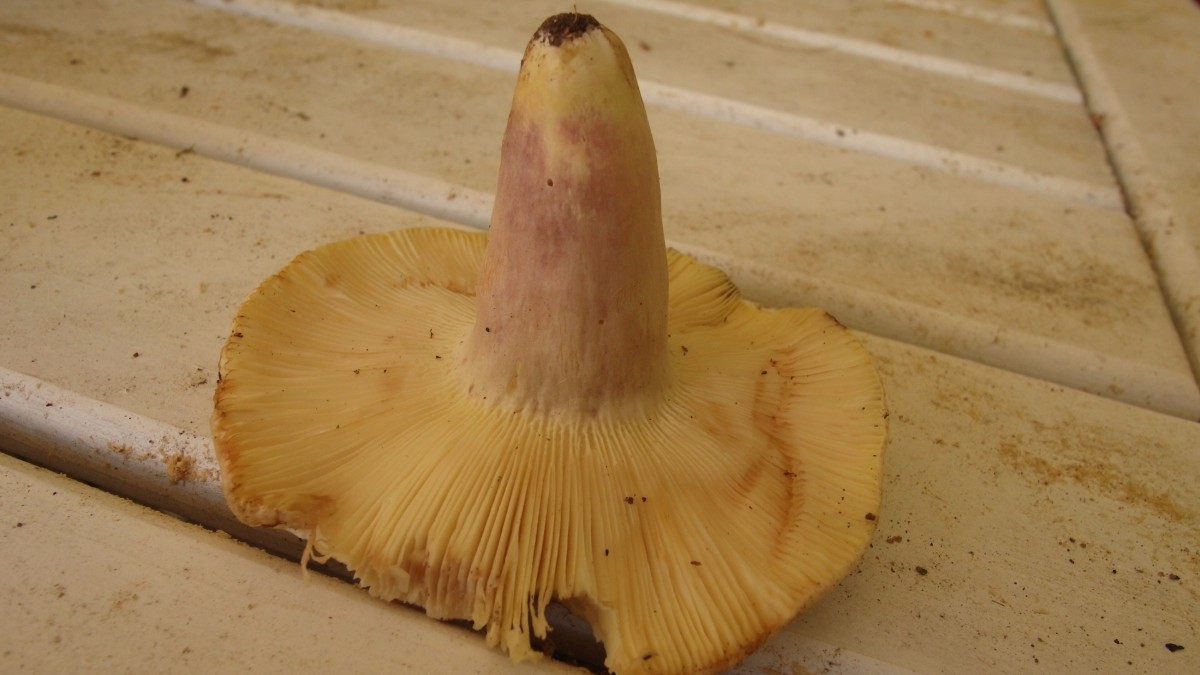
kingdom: Fungi
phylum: Basidiomycota
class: Agaricomycetes
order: Russulales
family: Russulaceae
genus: Russula
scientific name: Russula violeipes
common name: ferskengul skørhat
